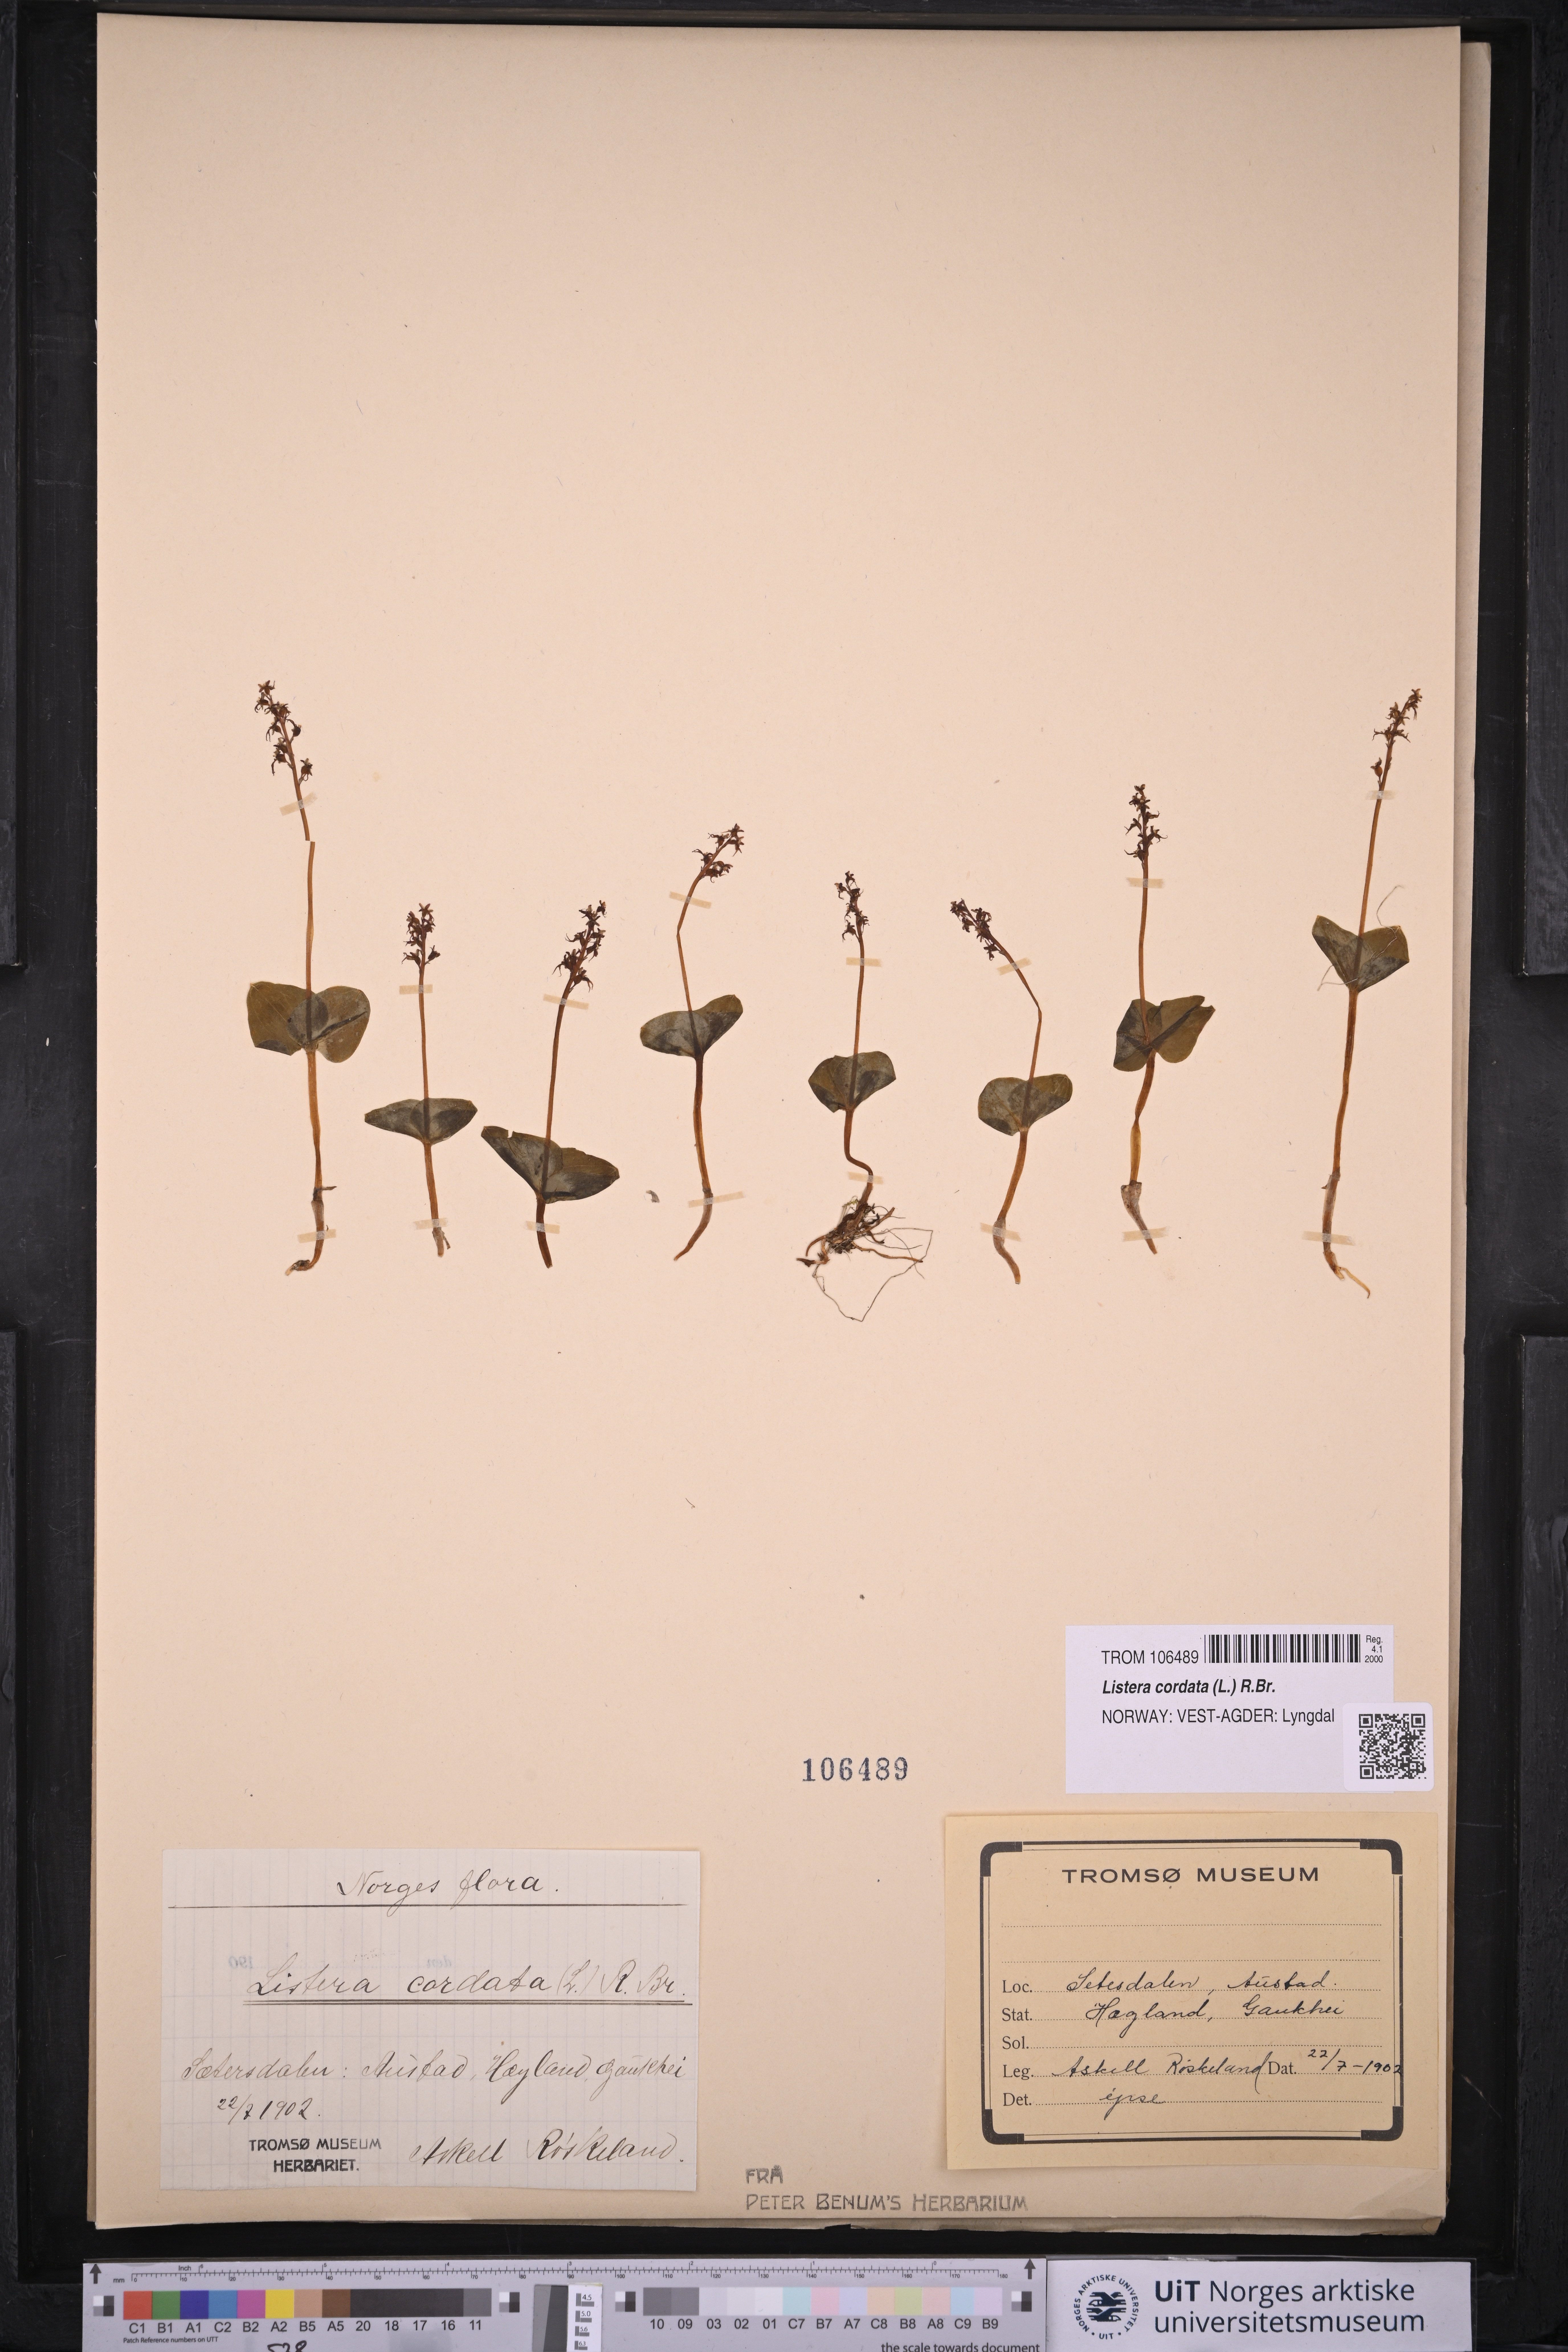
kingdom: Plantae
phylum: Tracheophyta
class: Liliopsida
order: Asparagales
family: Orchidaceae
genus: Neottia
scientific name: Neottia cordata
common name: Lesser twayblade
